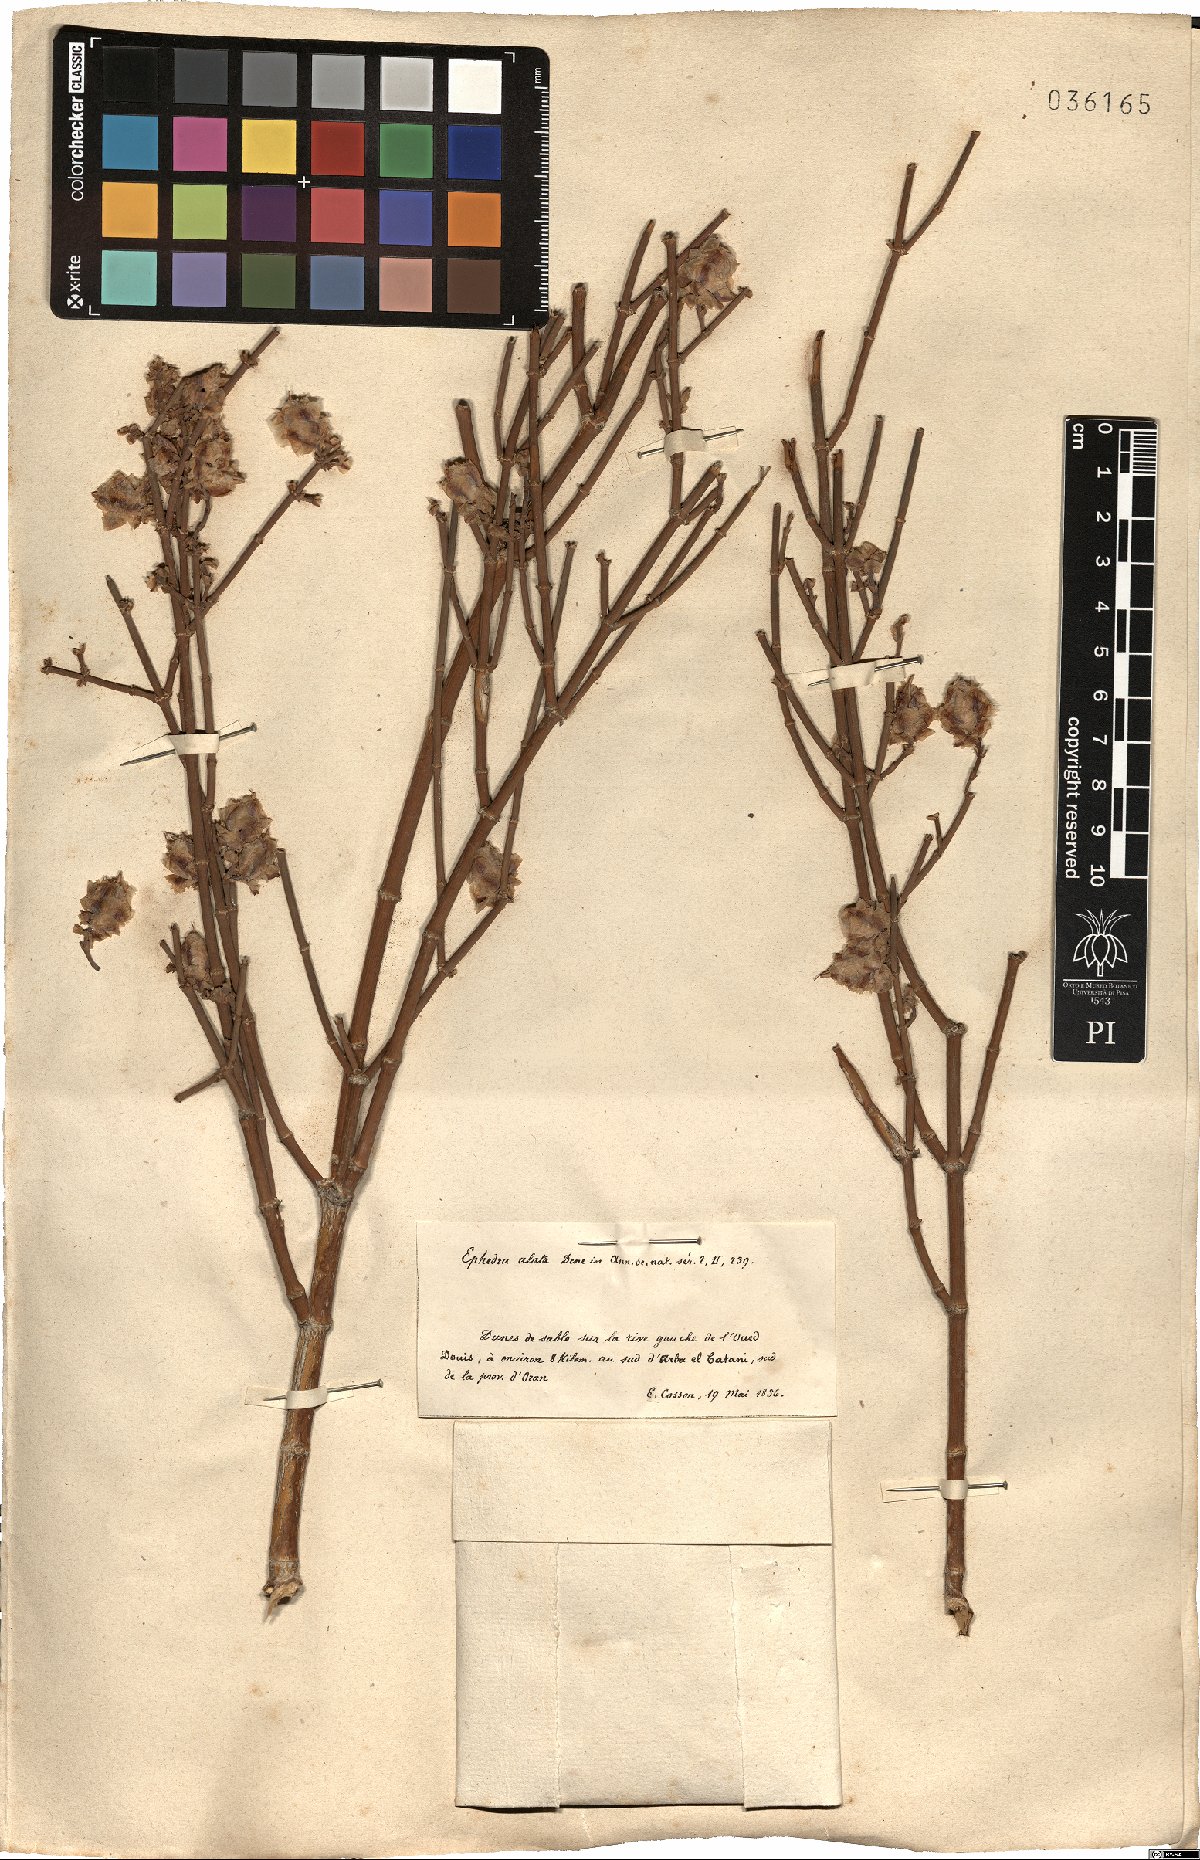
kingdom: Plantae
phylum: Tracheophyta
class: Gnetopsida
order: Ephedrales
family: Ephedraceae
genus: Ephedra
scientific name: Ephedra alata
